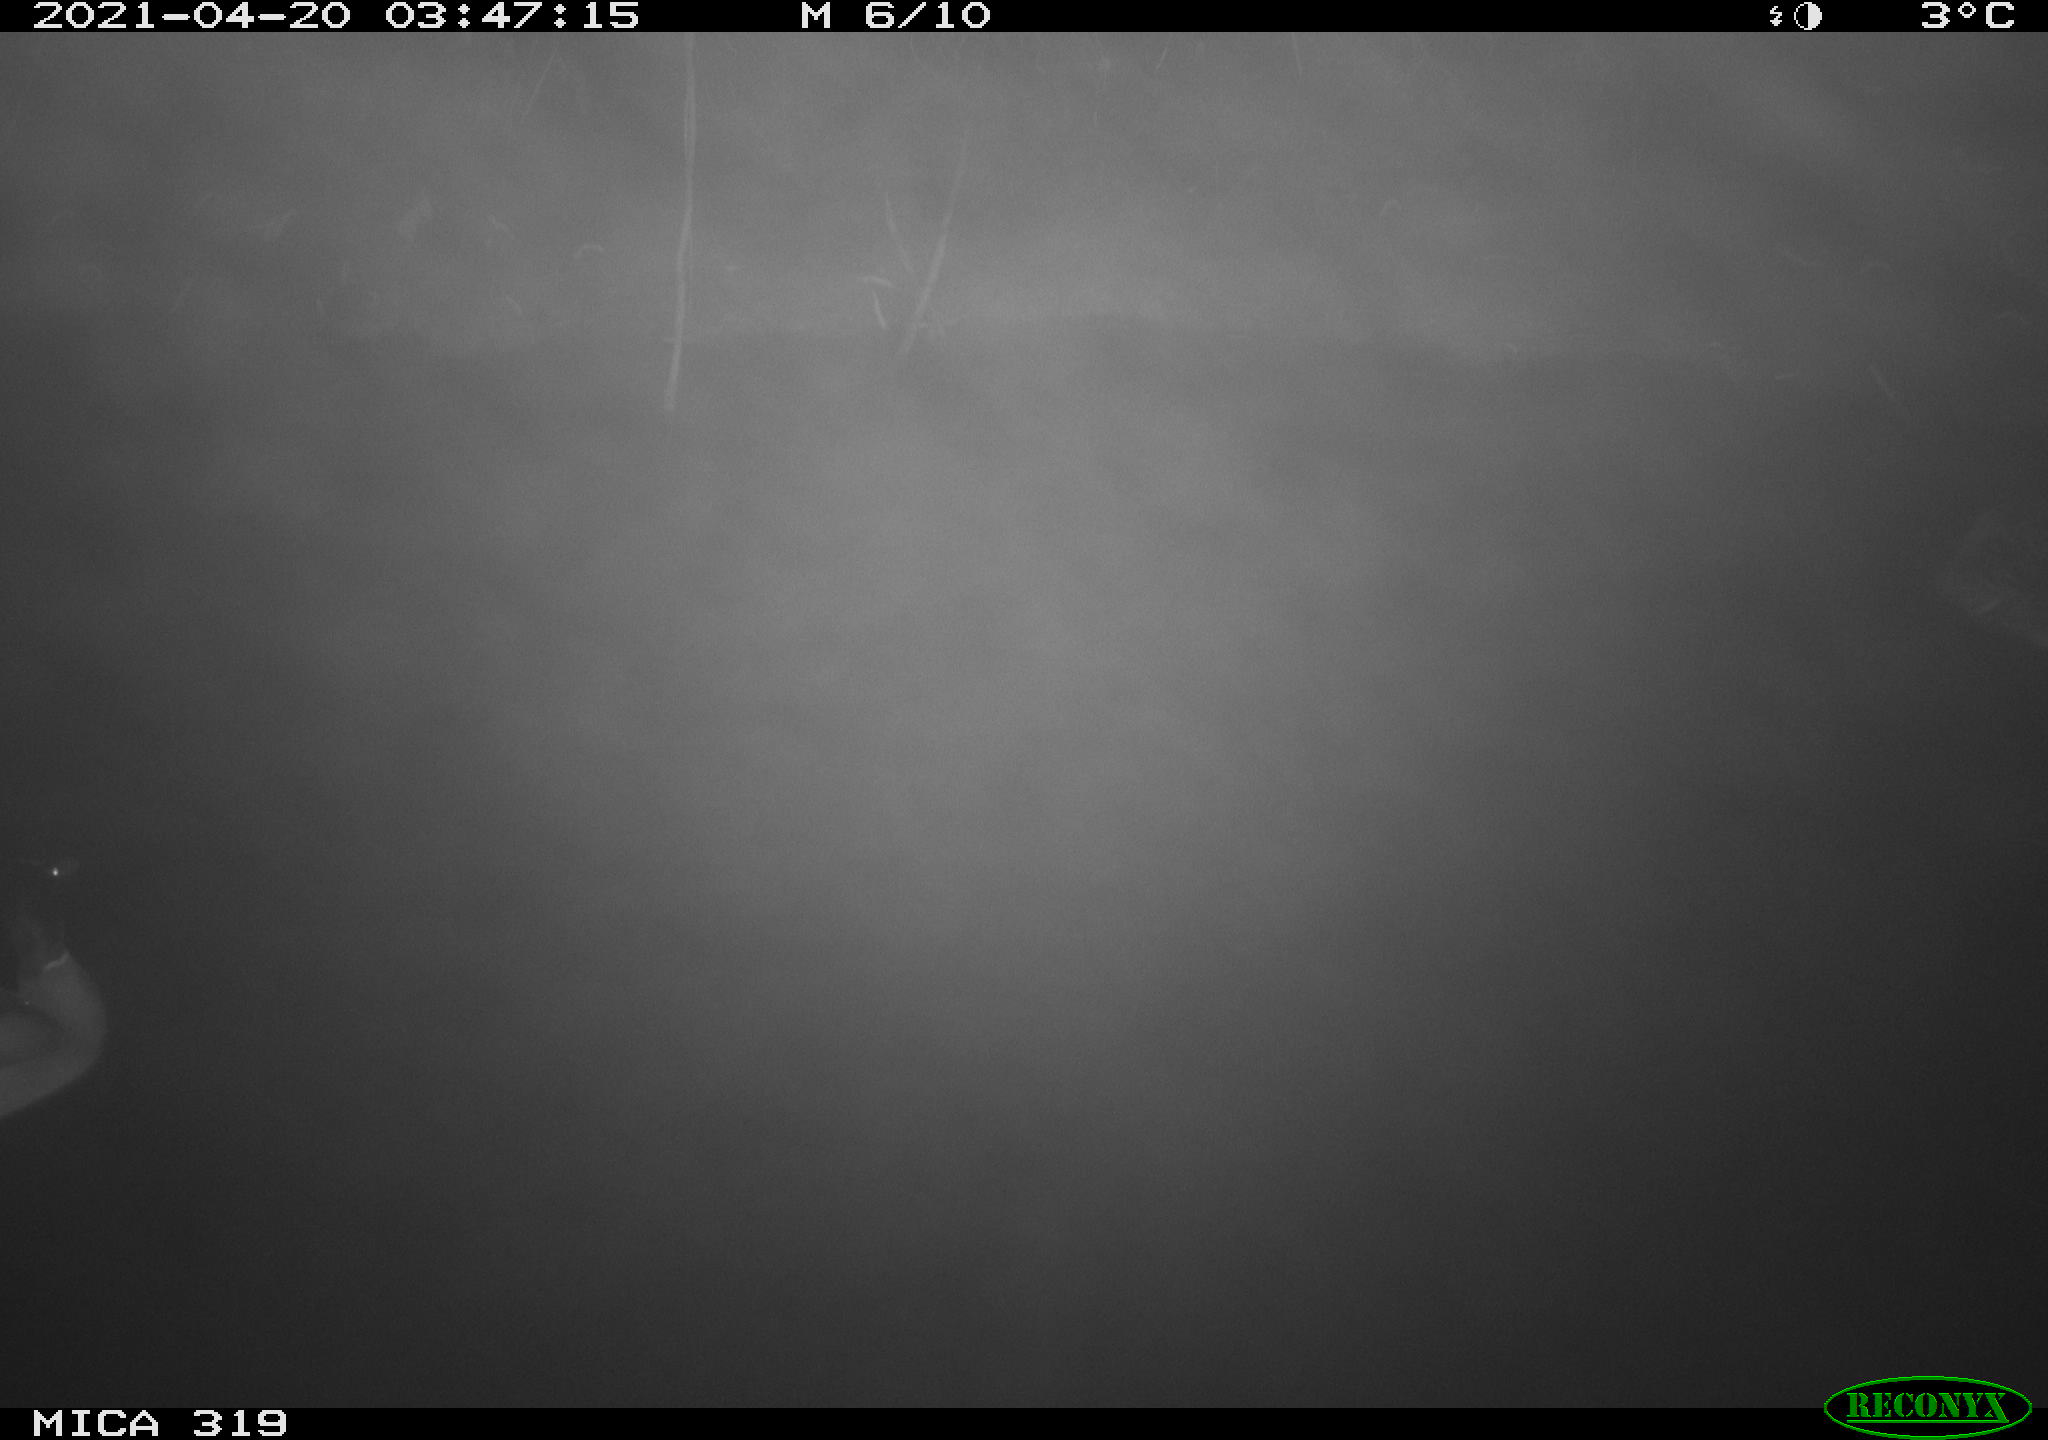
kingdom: Animalia
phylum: Chordata
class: Aves
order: Anseriformes
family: Anatidae
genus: Anas
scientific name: Anas platyrhynchos
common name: Mallard
